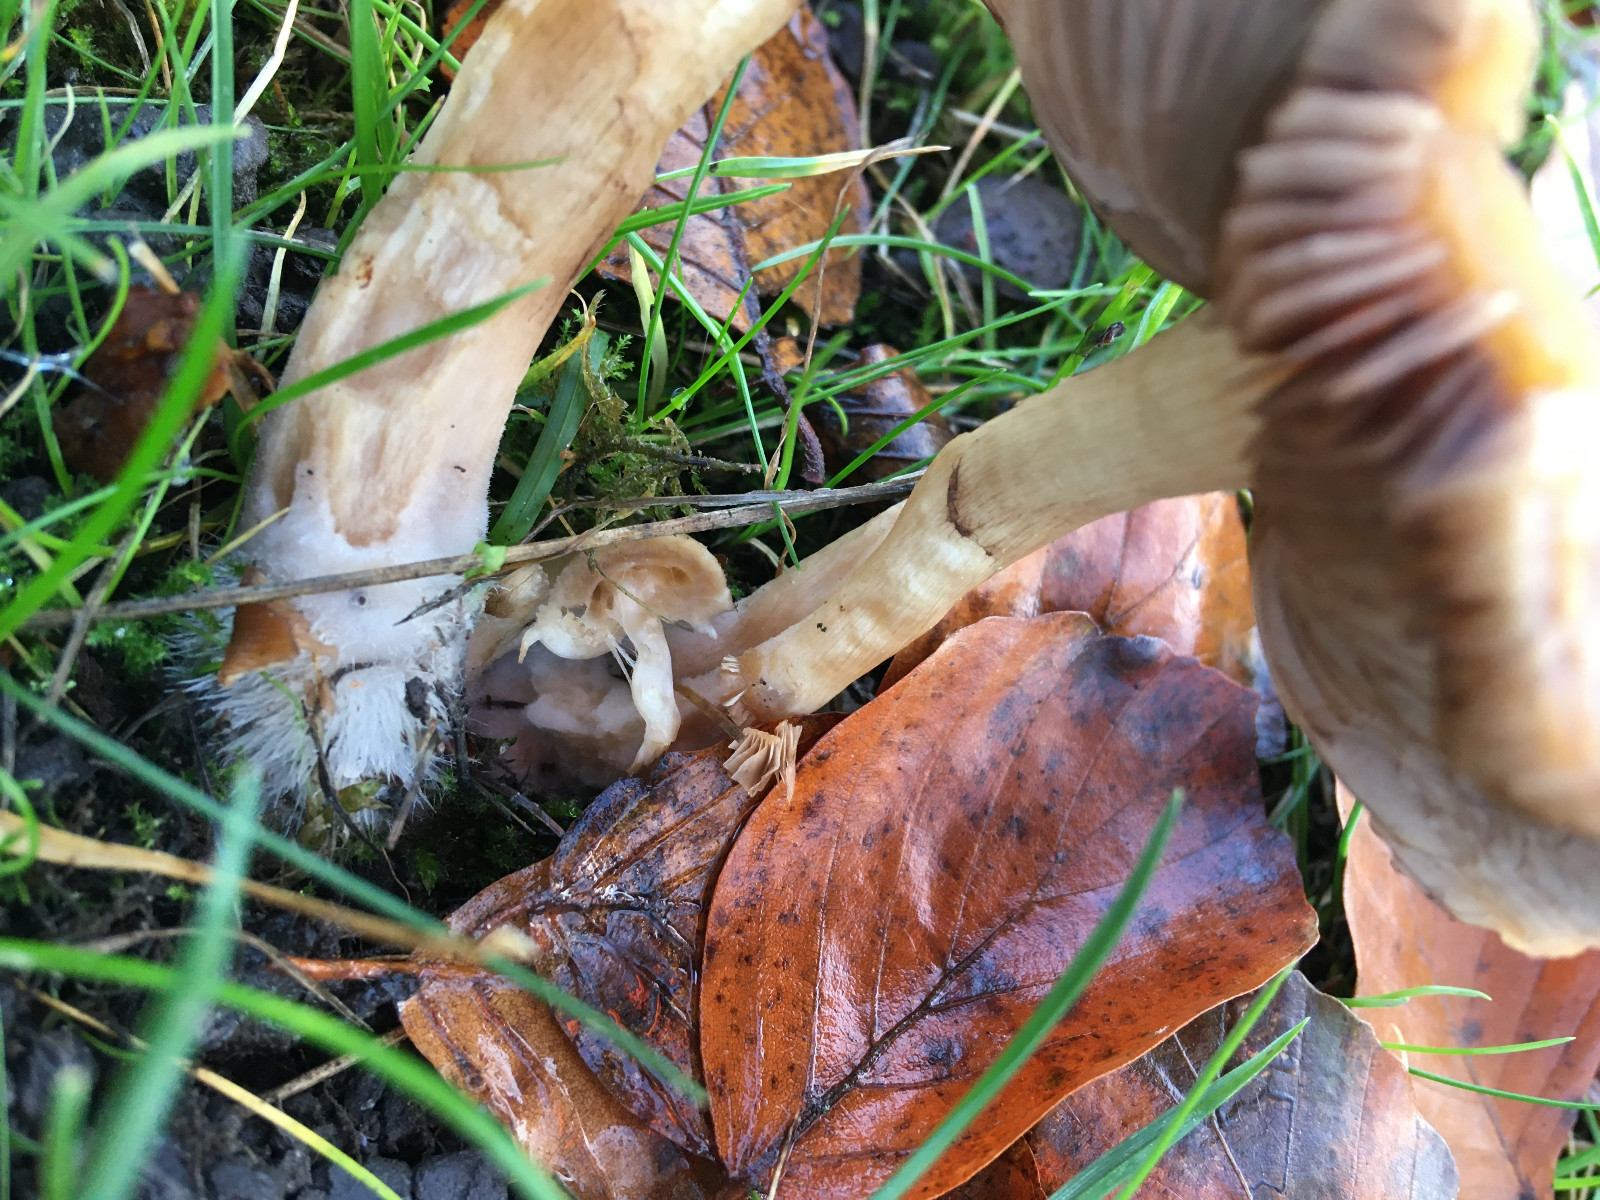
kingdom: Fungi
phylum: Basidiomycota
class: Agaricomycetes
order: Agaricales
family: Psathyrellaceae
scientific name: Psathyrellaceae
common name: mørkhatfamilien
